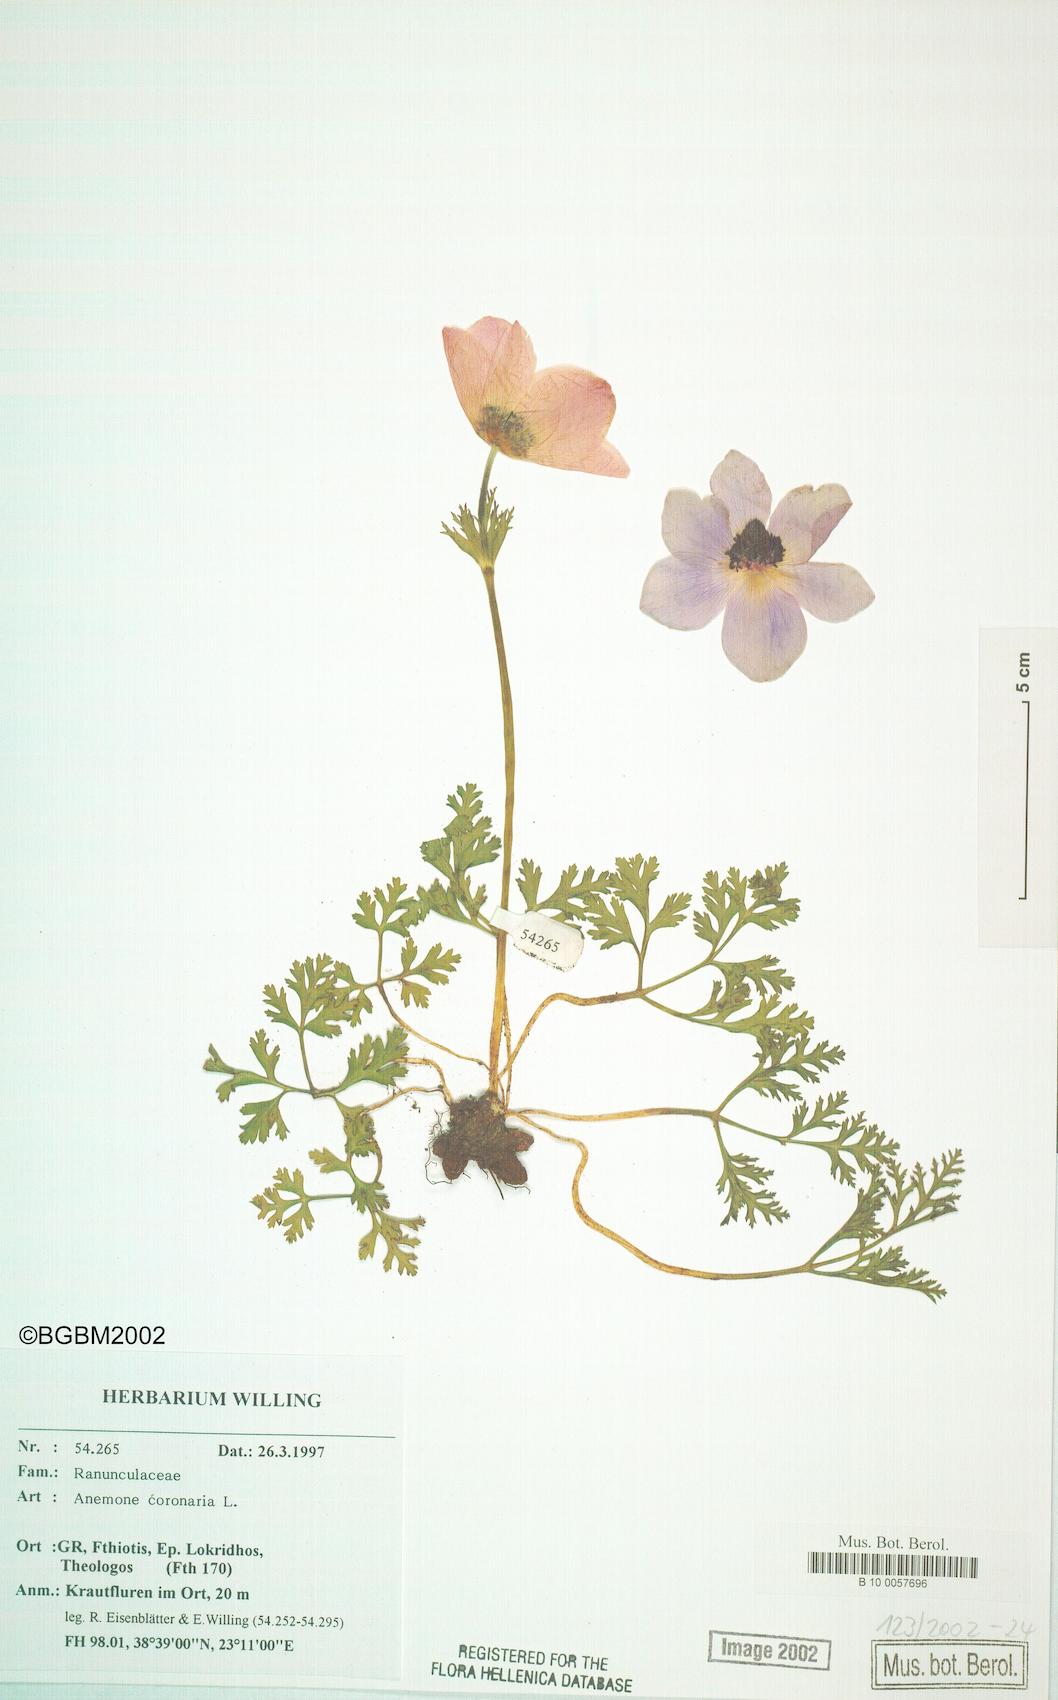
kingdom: Plantae
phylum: Tracheophyta
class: Magnoliopsida
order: Ranunculales
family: Ranunculaceae
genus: Anemone
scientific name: Anemone coronaria
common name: Poppy anemone
